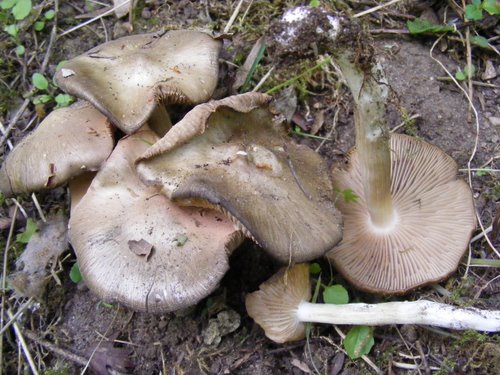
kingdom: Fungi
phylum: Basidiomycota
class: Agaricomycetes
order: Agaricales
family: Entolomataceae
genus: Entoloma
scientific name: Entoloma clypeatum
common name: flammet rødblad
